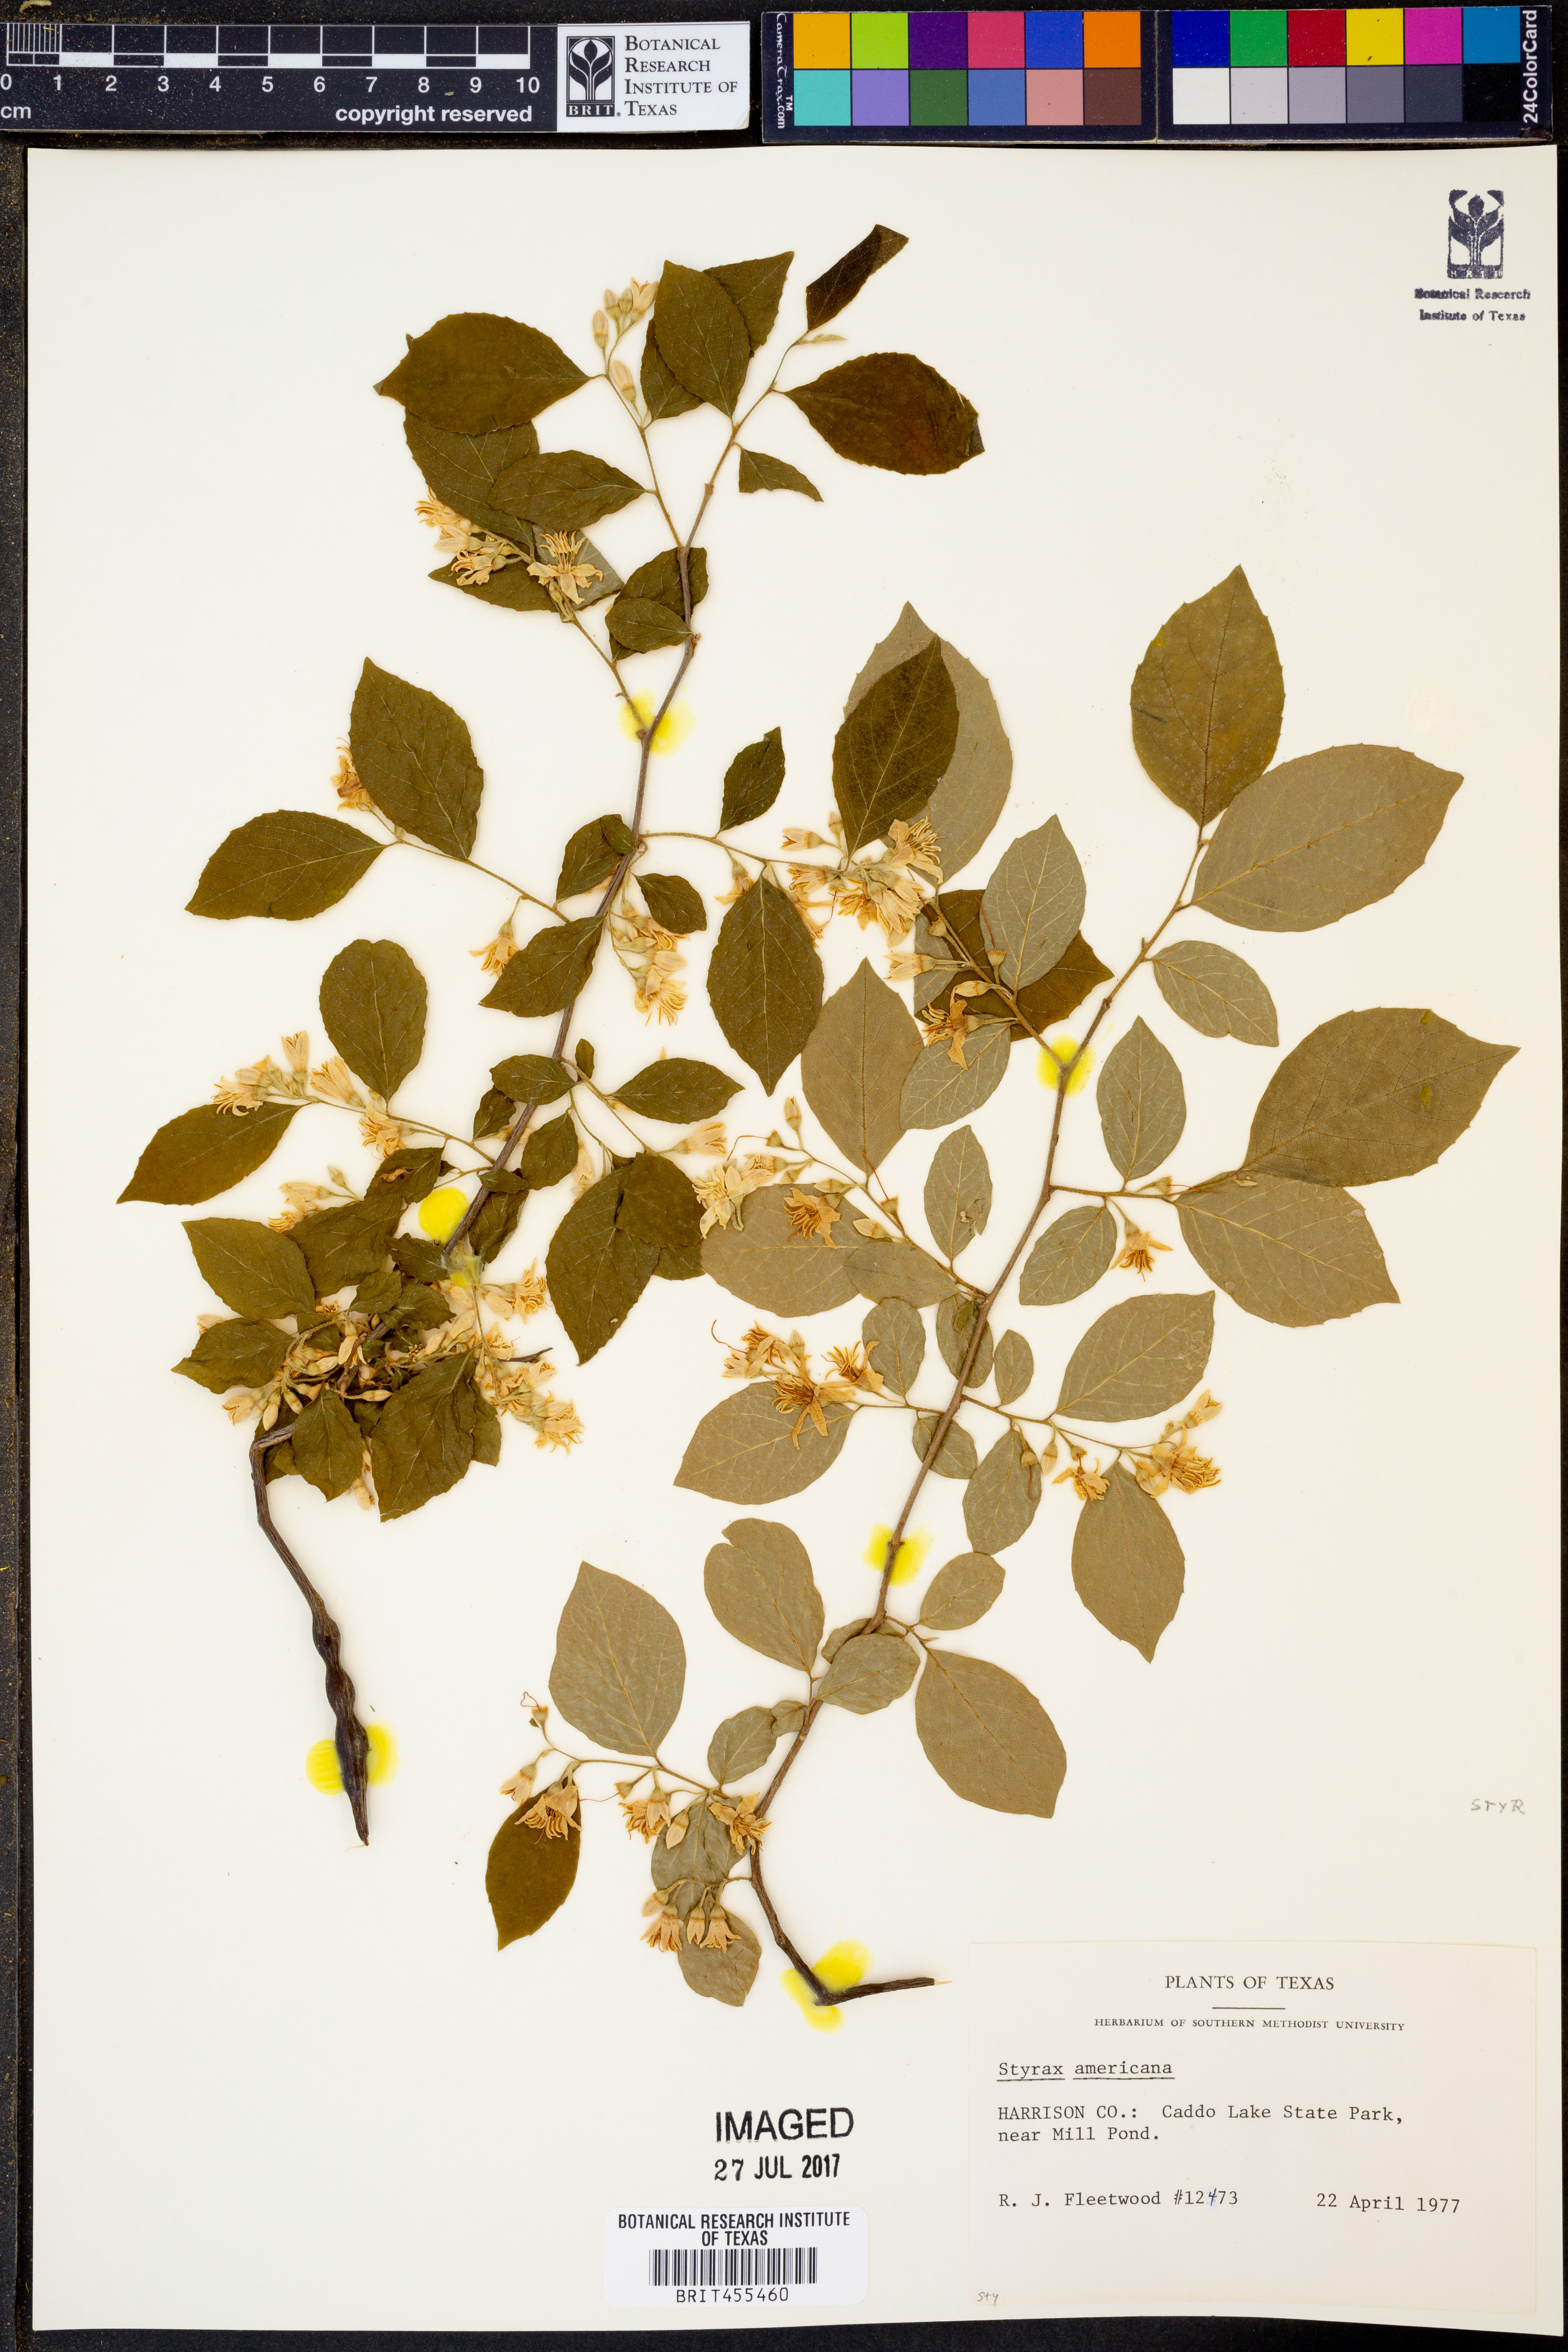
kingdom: Plantae
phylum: Tracheophyta
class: Magnoliopsida
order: Ericales
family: Styracaceae
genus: Styrax
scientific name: Styrax americanus
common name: American snowbell
